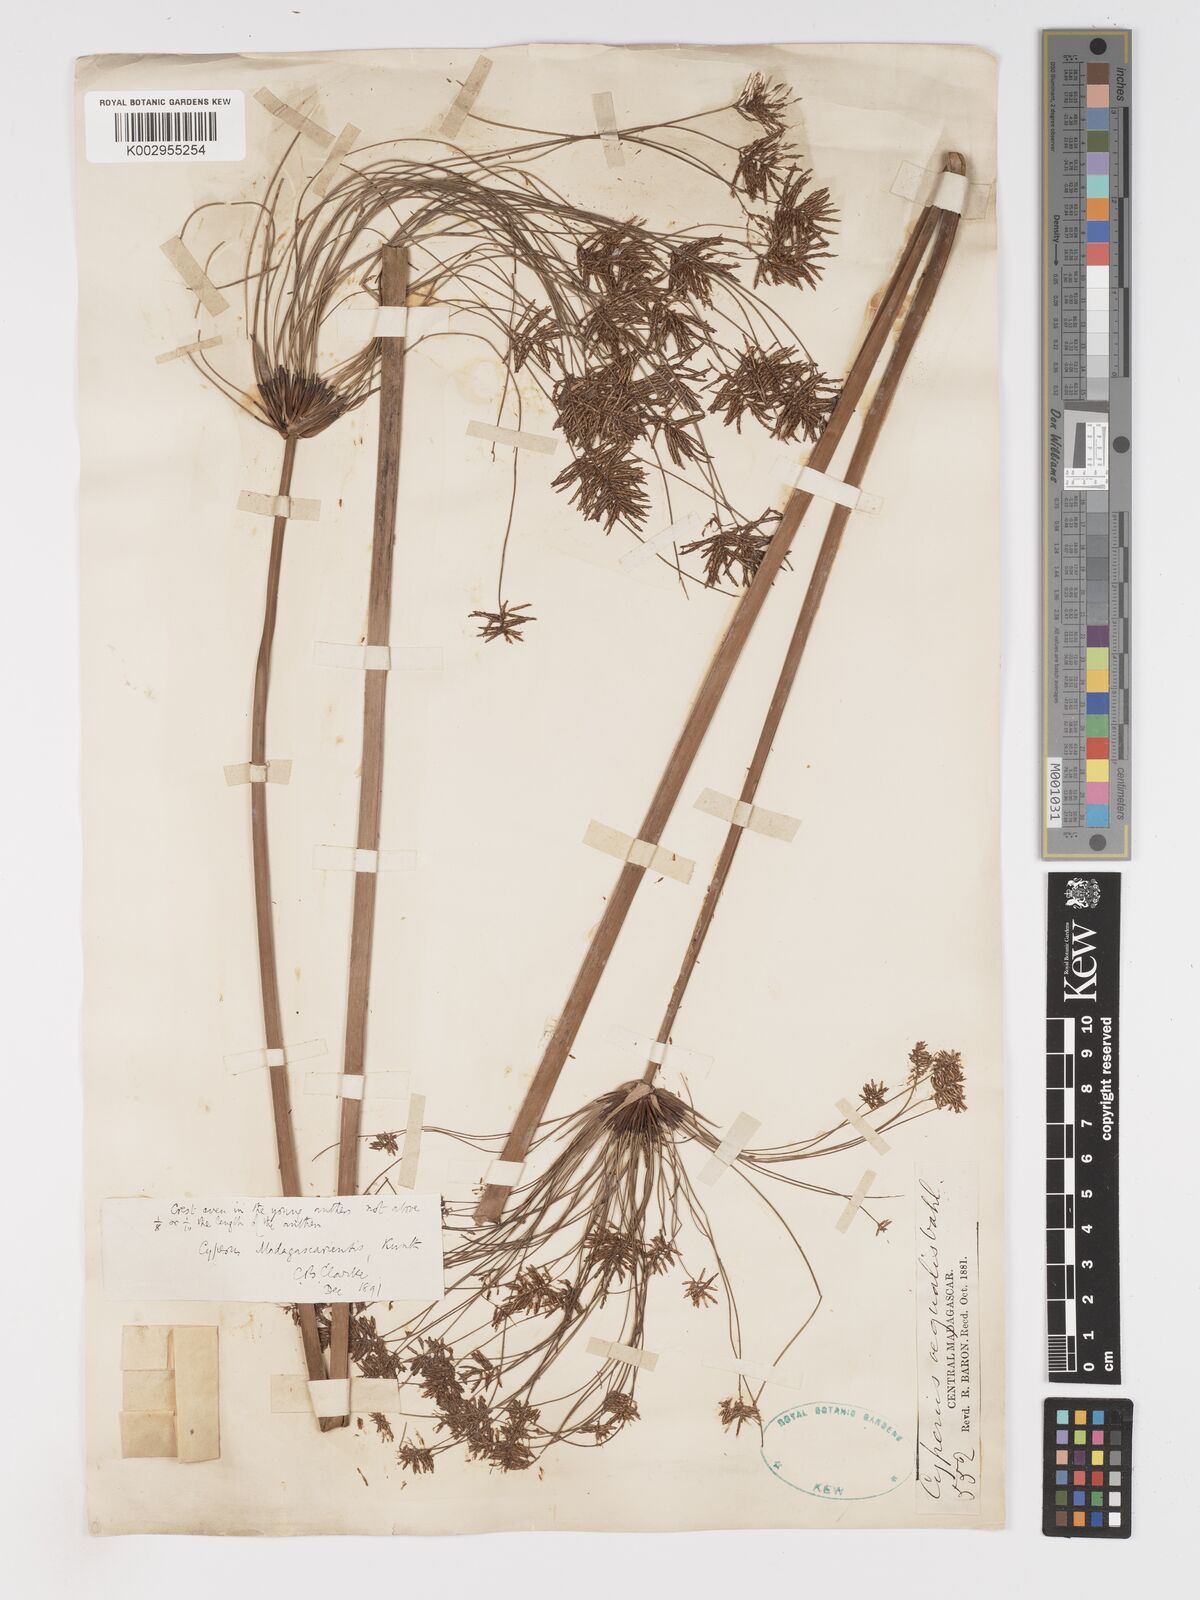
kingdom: Plantae
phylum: Tracheophyta
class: Liliopsida
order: Poales
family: Cyperaceae
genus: Cyperus
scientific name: Cyperus papyrus
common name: Papyrus
